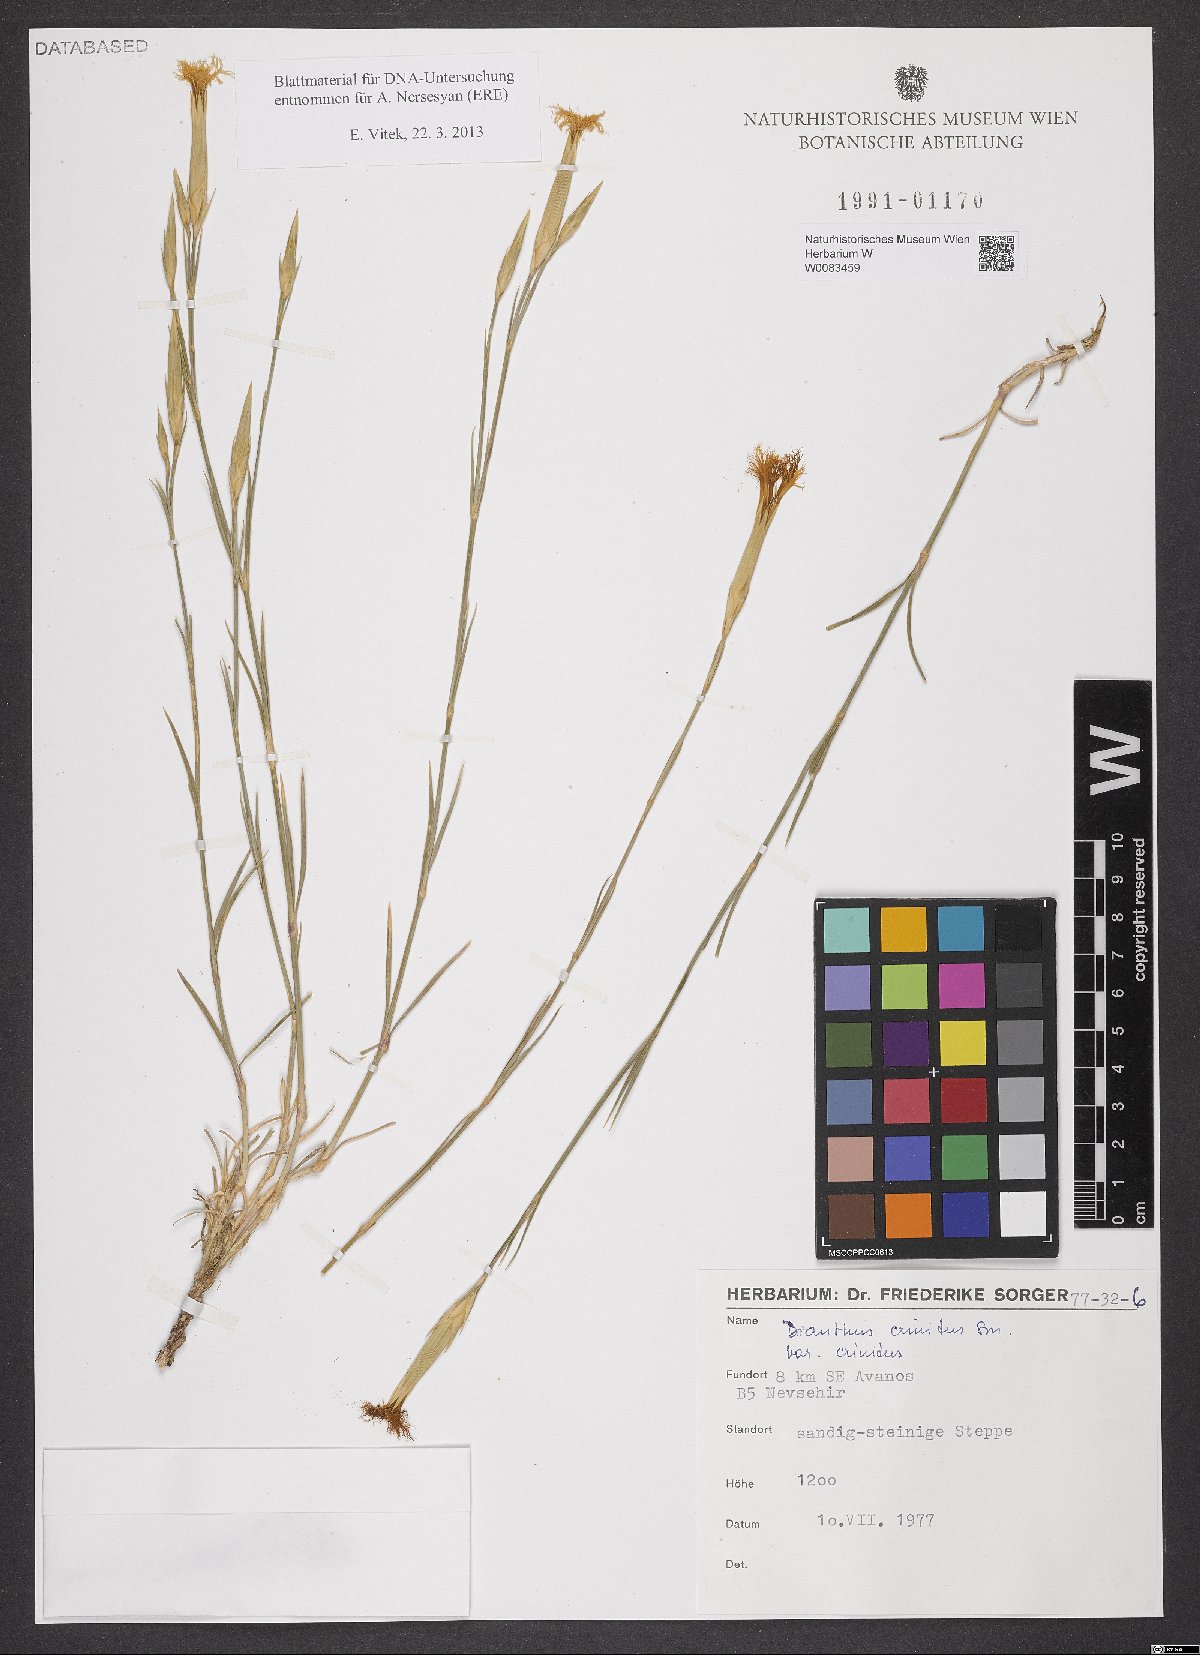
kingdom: Plantae
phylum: Tracheophyta
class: Magnoliopsida
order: Caryophyllales
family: Caryophyllaceae
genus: Dianthus
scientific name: Dianthus crinitus
